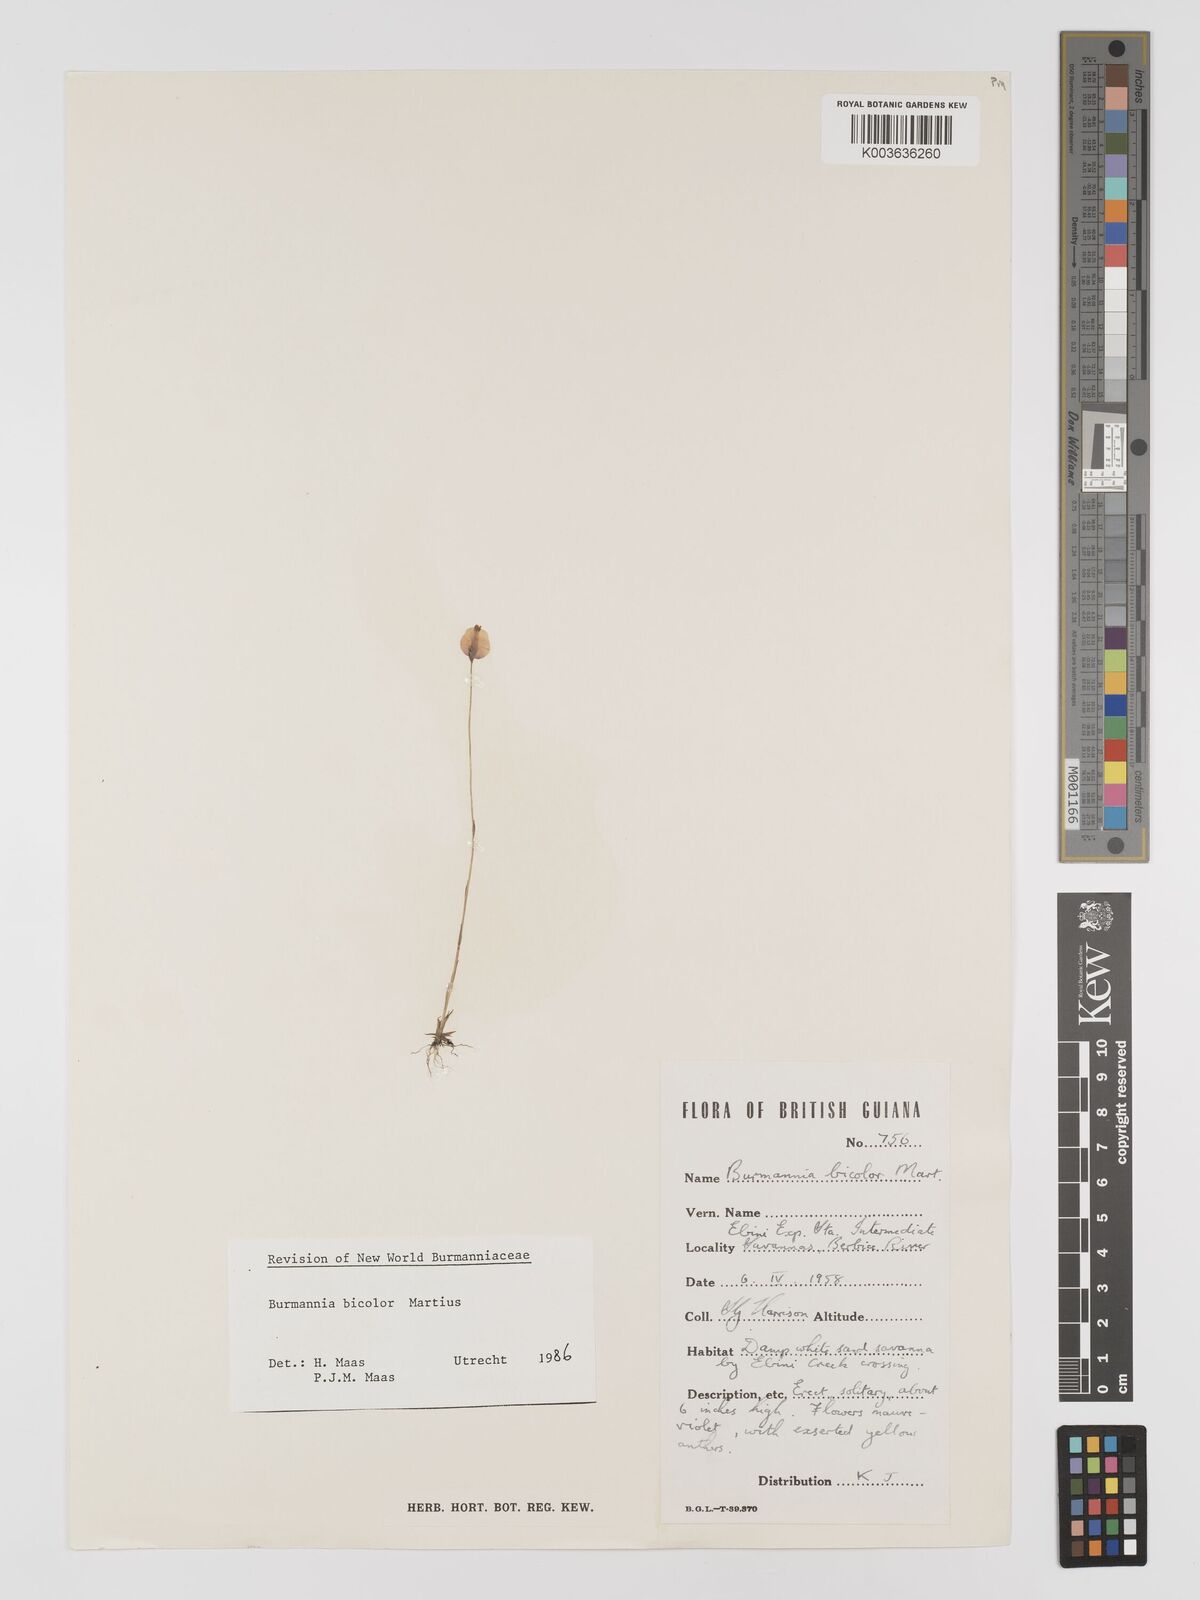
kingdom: Plantae
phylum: Tracheophyta
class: Liliopsida
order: Dioscoreales
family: Burmanniaceae
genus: Burmannia
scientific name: Burmannia bicolor
